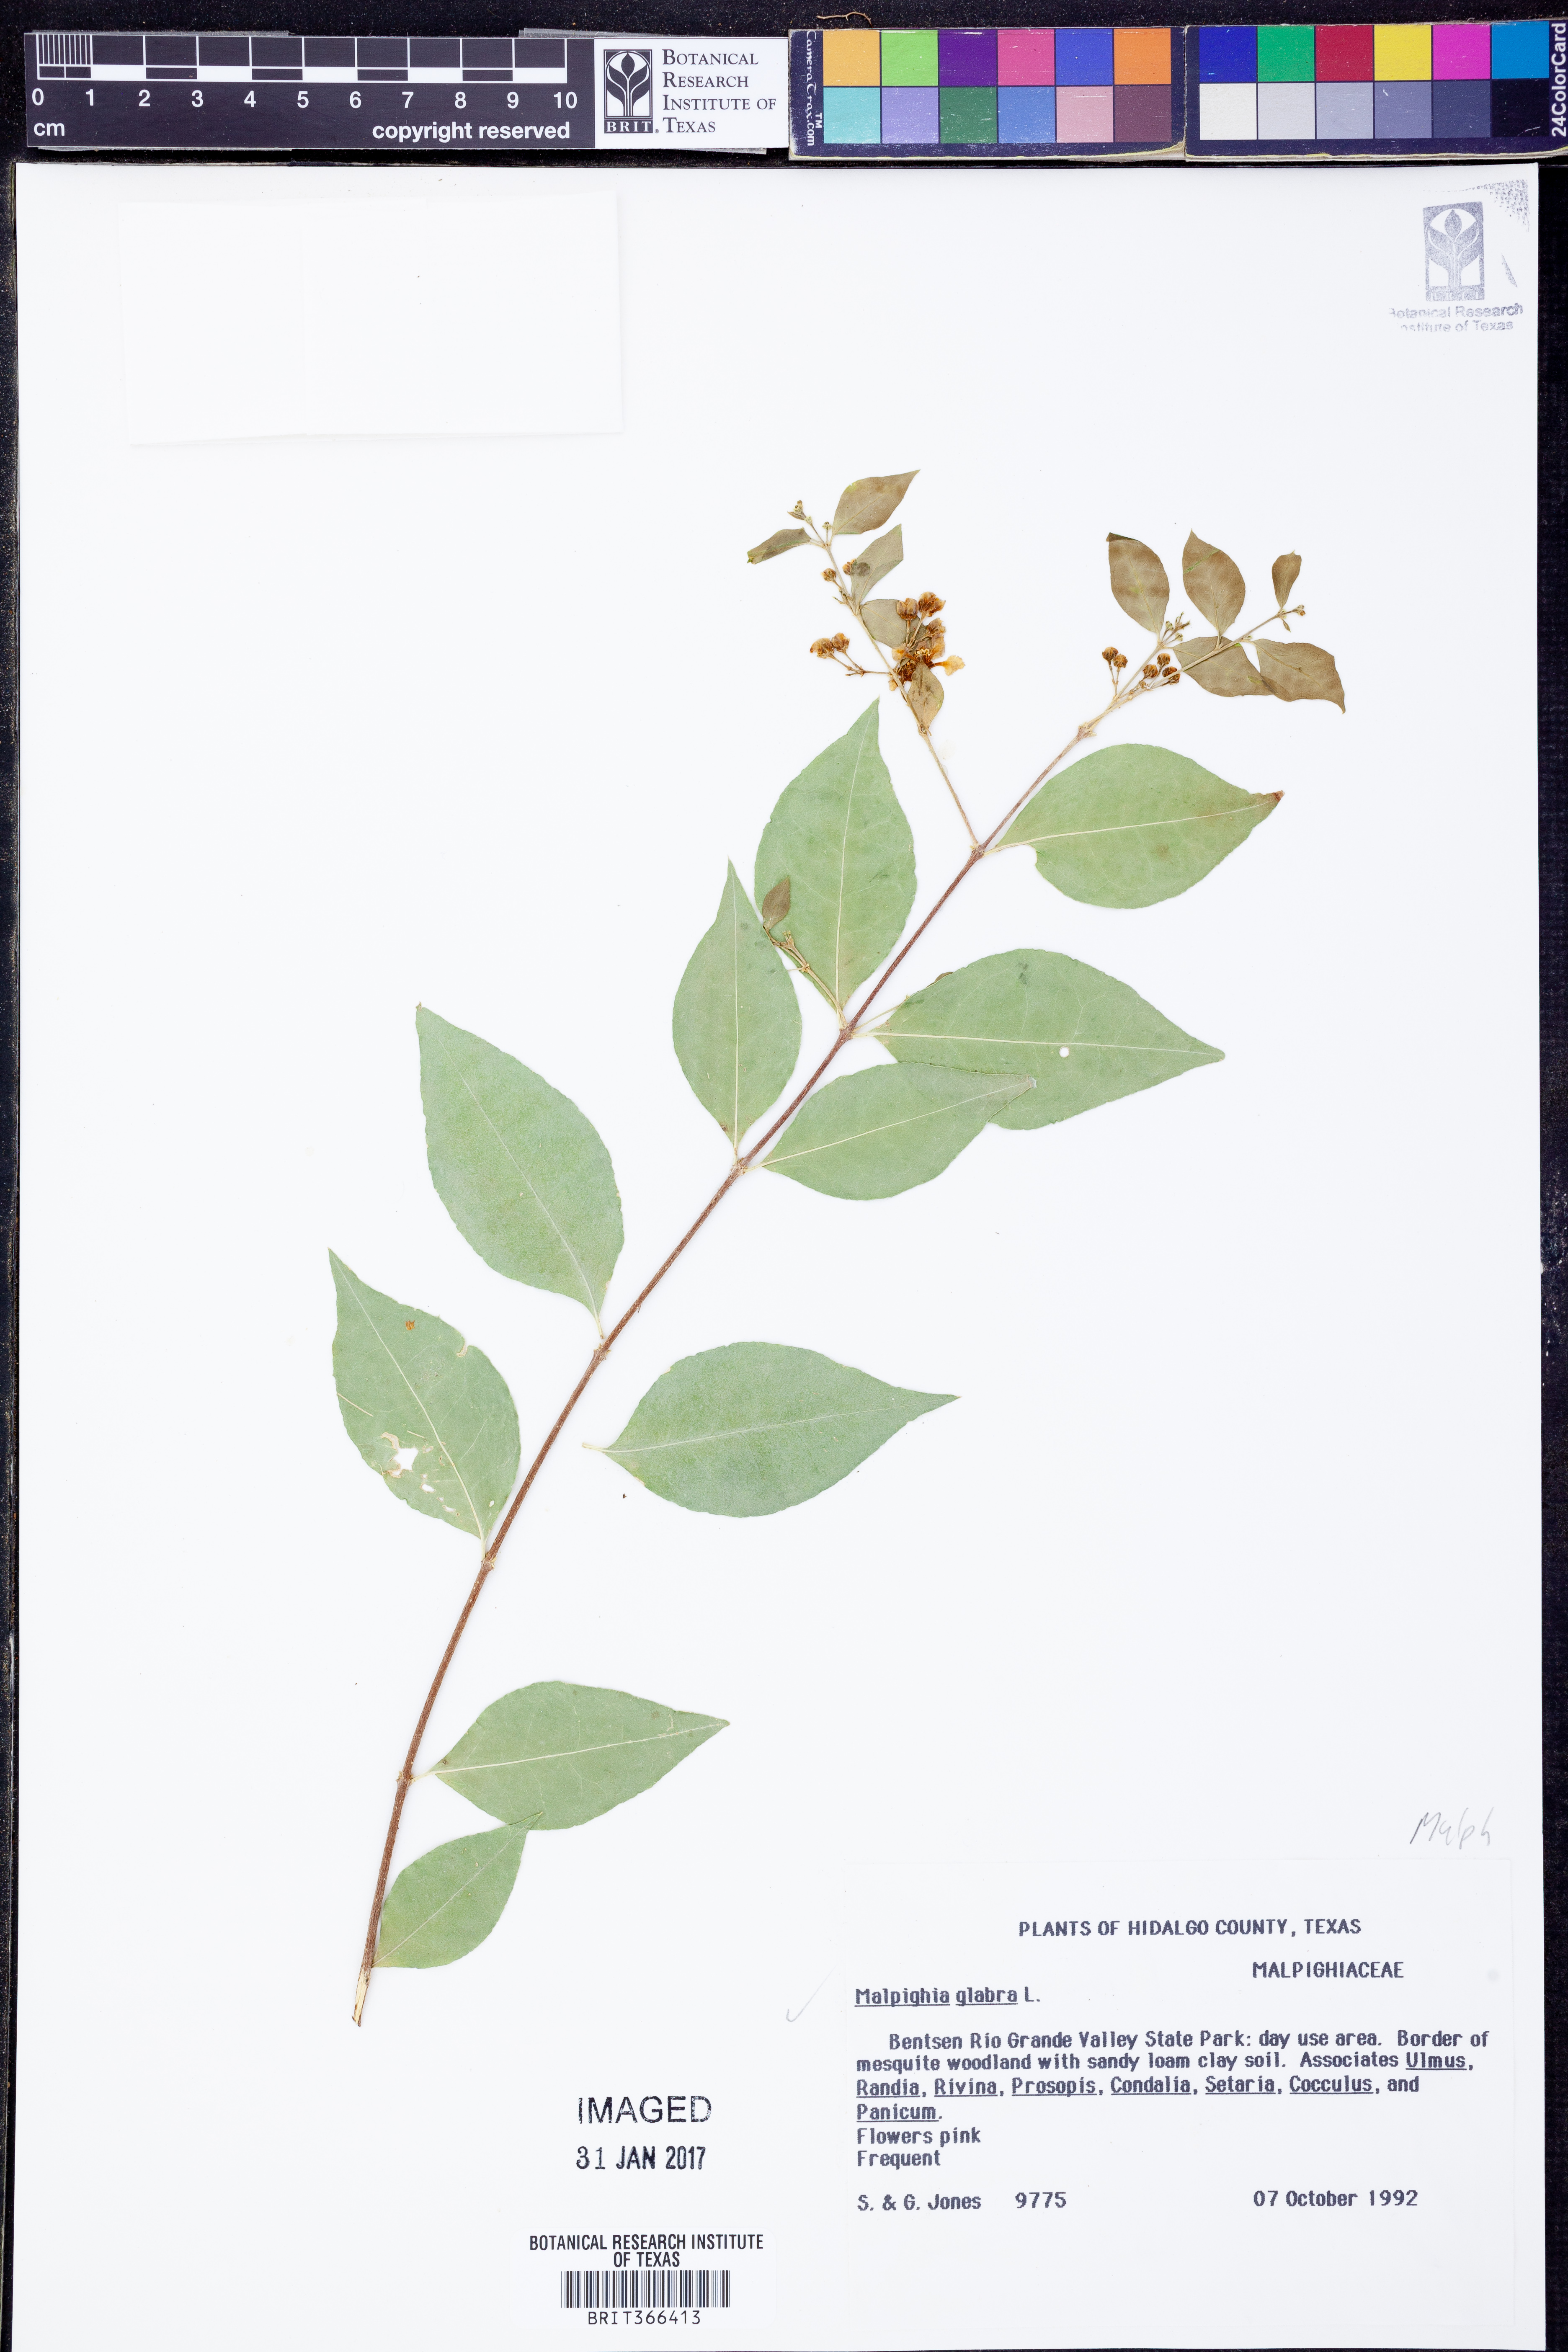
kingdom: Plantae
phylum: Tracheophyta
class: Magnoliopsida
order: Malpighiales
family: Malpighiaceae
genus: Malpighia
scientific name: Malpighia glabra
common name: Barbados cherry
